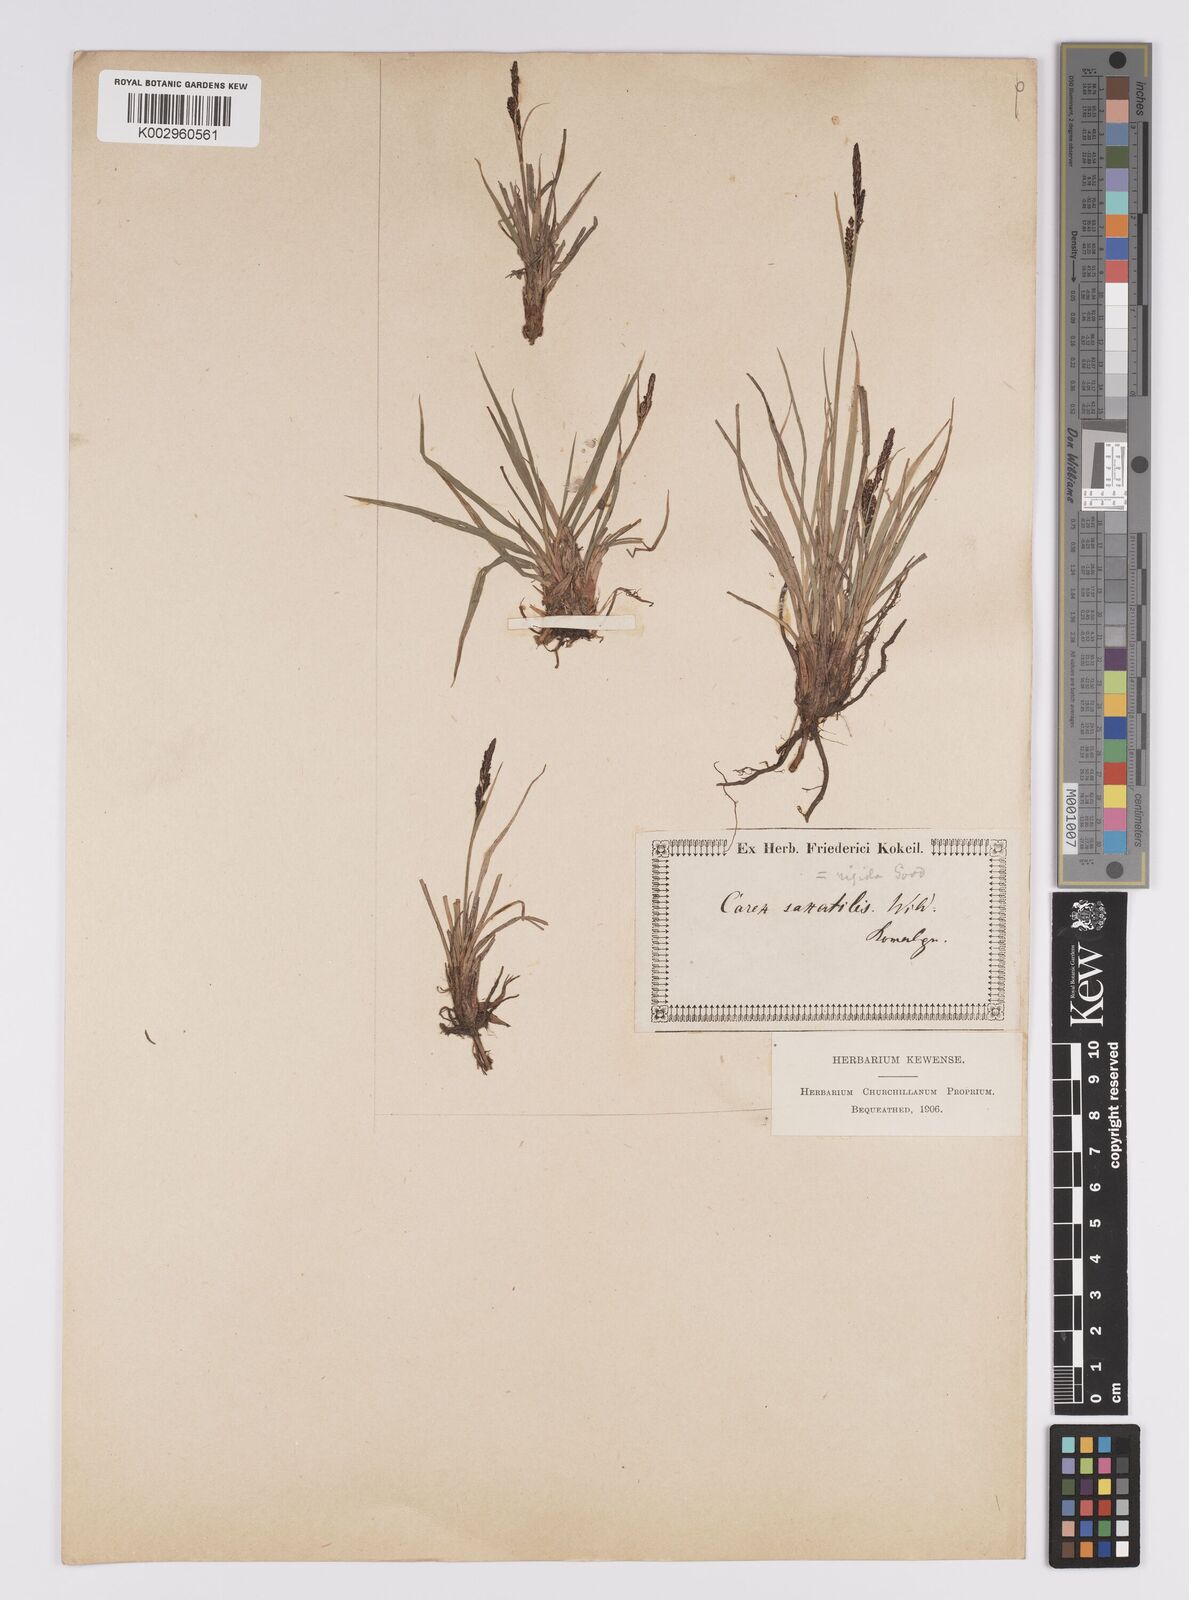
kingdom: Plantae
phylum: Tracheophyta
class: Liliopsida
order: Poales
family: Cyperaceae
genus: Carex
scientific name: Carex saxatilis
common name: Russet sedge
